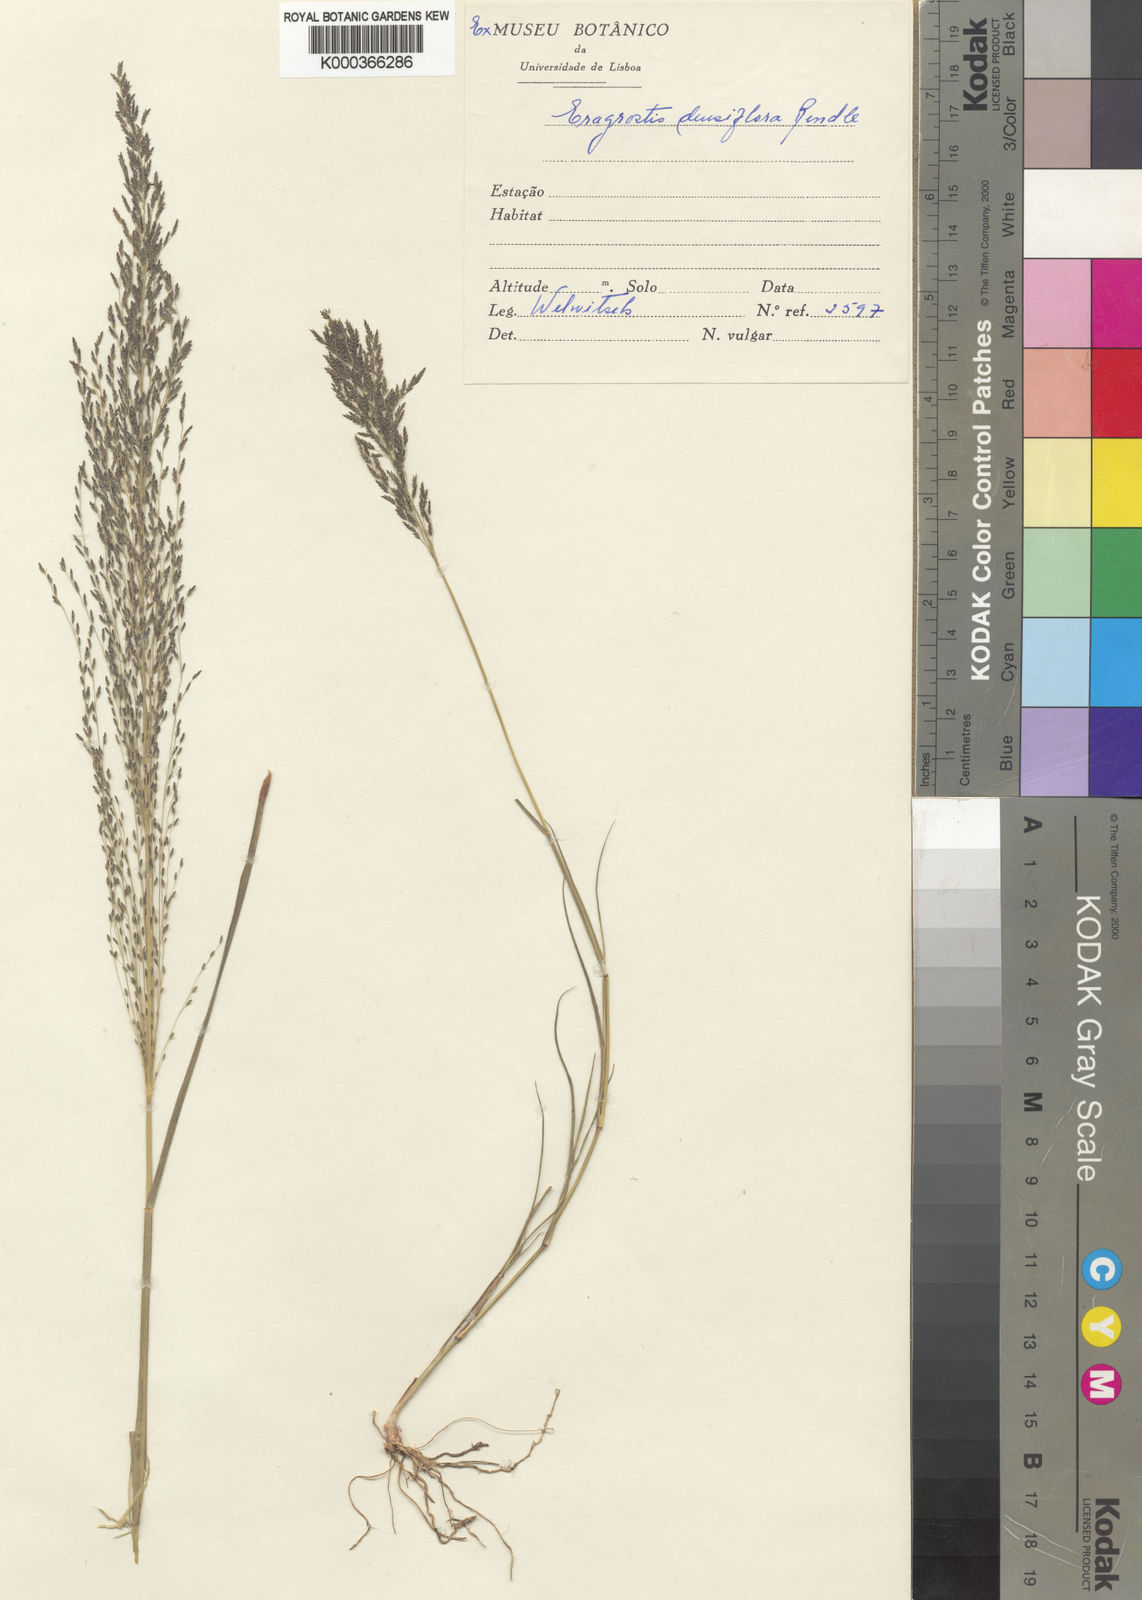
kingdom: Plantae
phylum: Tracheophyta
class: Liliopsida
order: Poales
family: Poaceae
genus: Eragrostis
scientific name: Eragrostis rotifer
